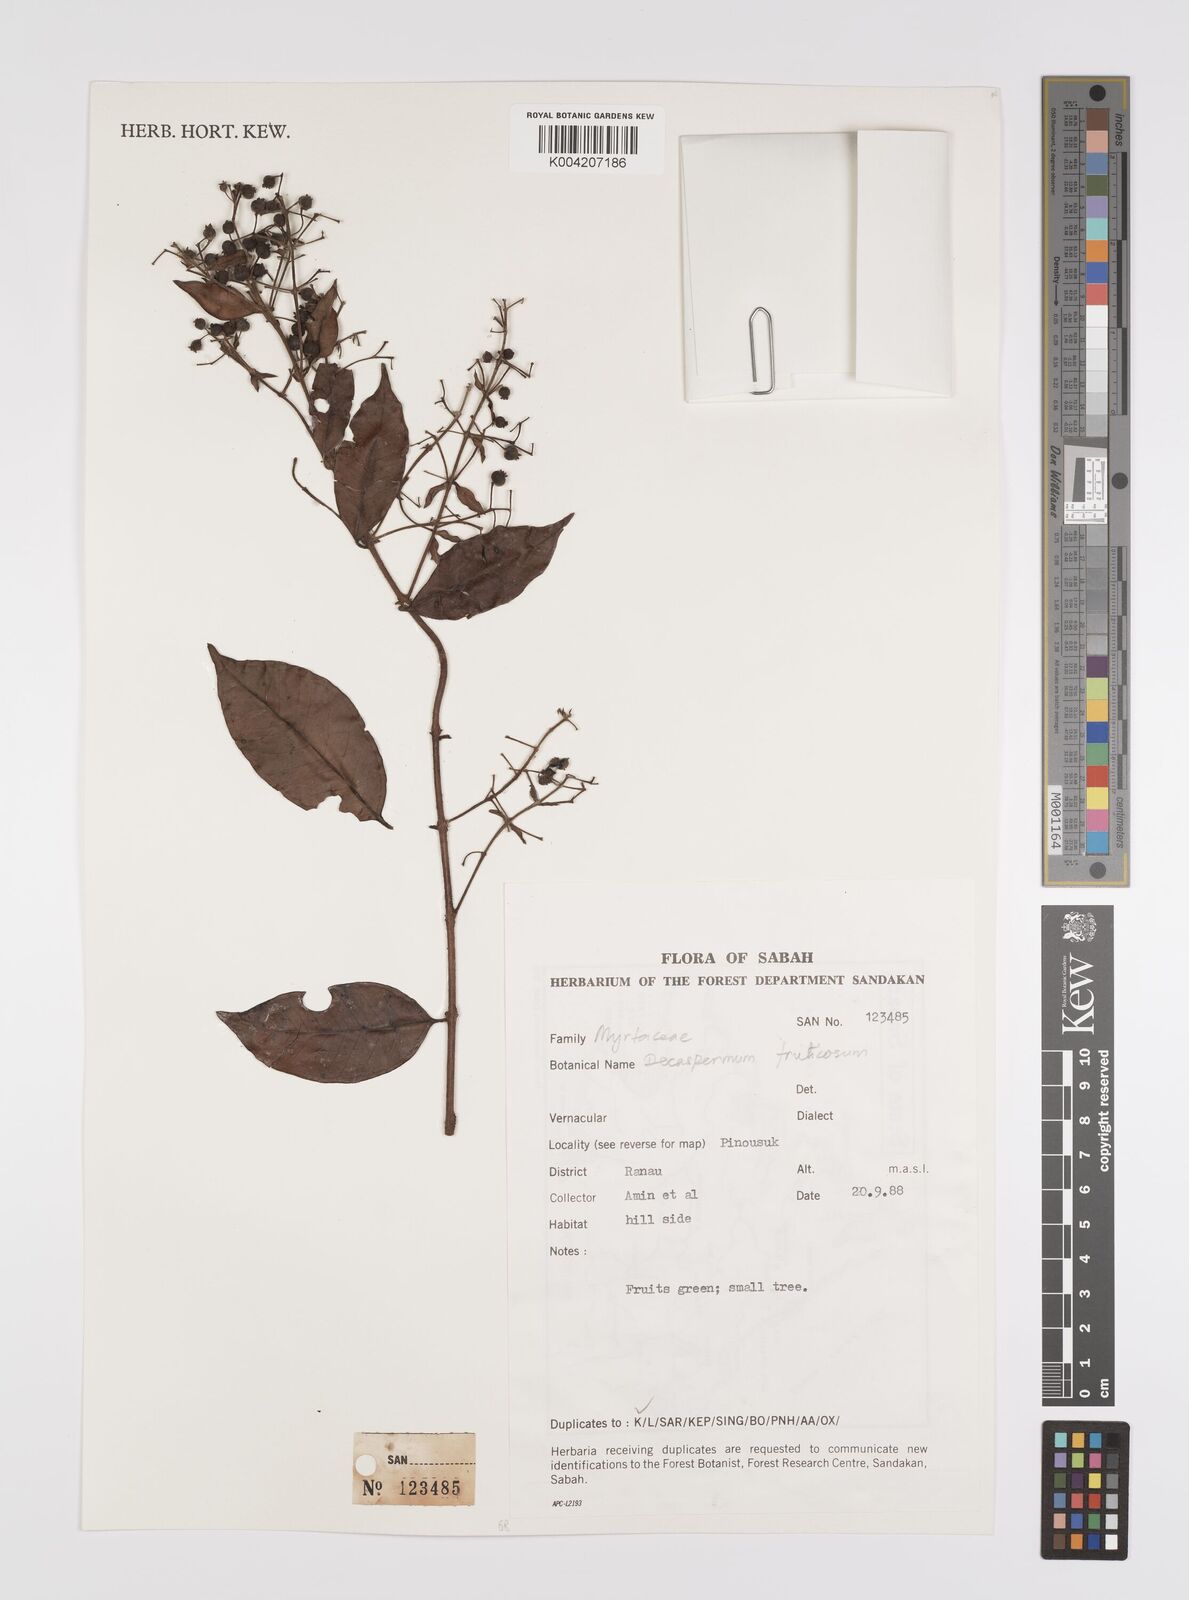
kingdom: Plantae
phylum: Tracheophyta
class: Magnoliopsida
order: Myrtales
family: Myrtaceae
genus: Decaspermum
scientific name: Decaspermum parviflorum
